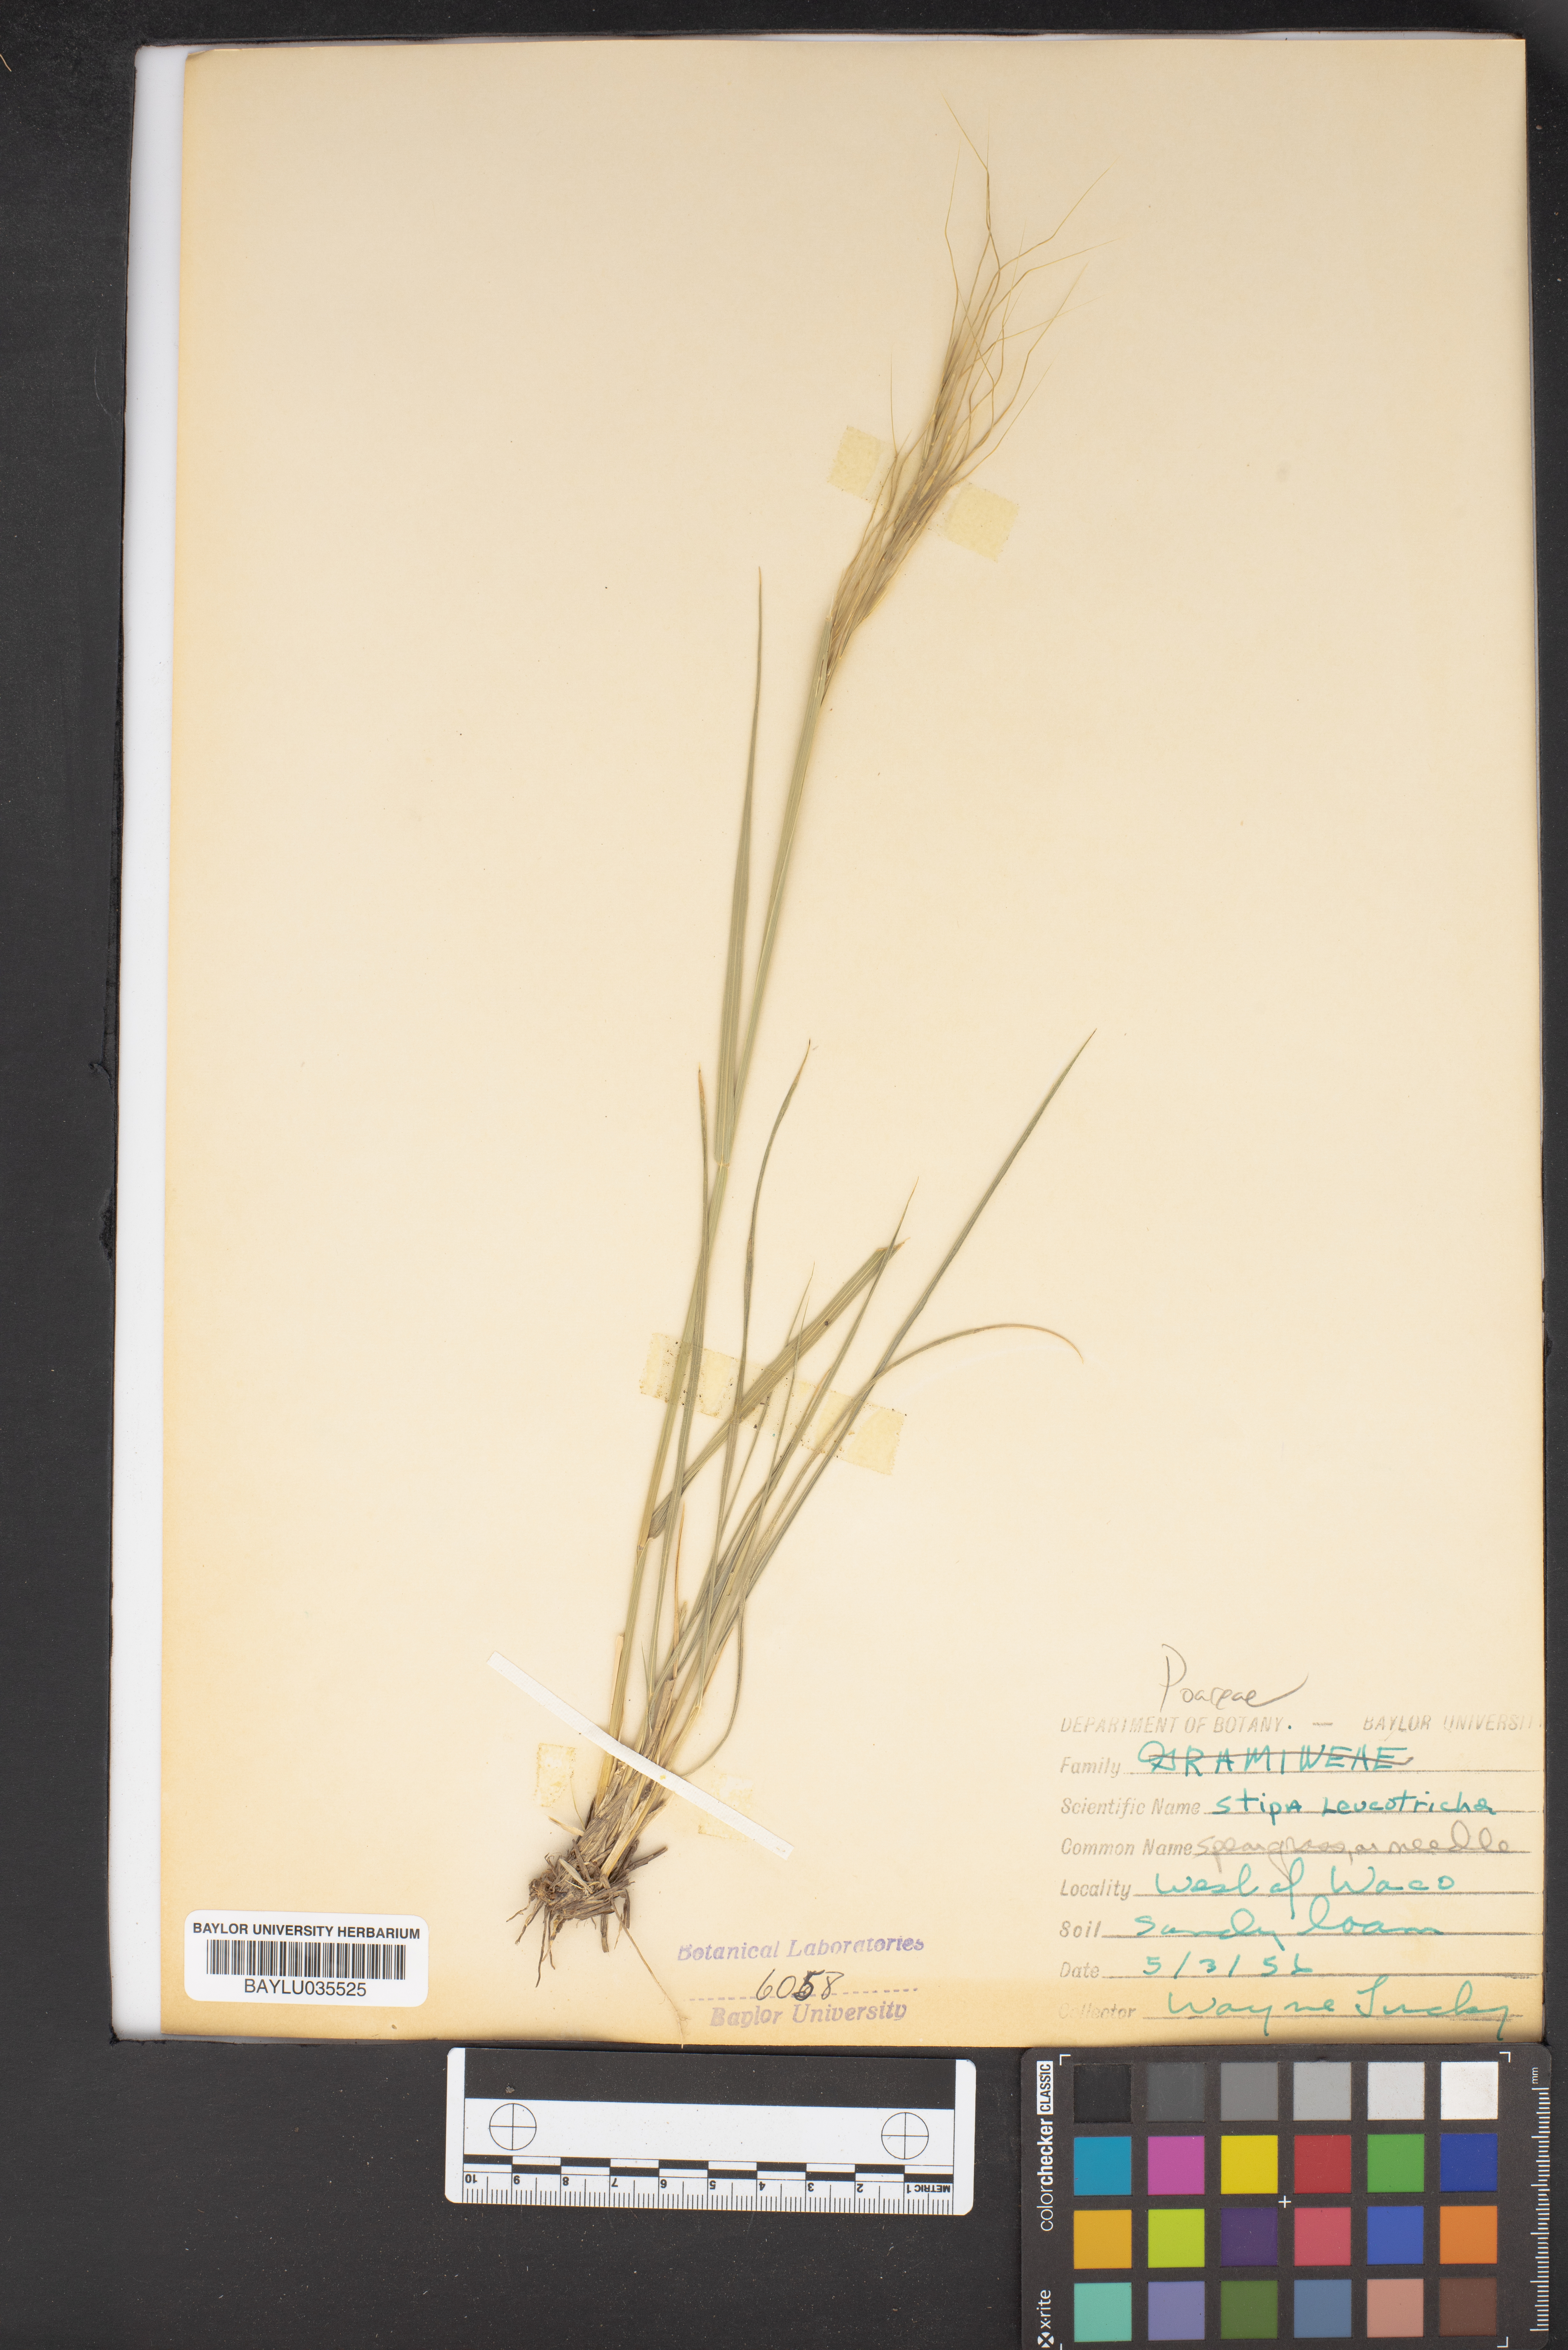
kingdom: Plantae
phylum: Tracheophyta
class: Liliopsida
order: Poales
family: Poaceae
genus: Nassella
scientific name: Nassella leucotricha
